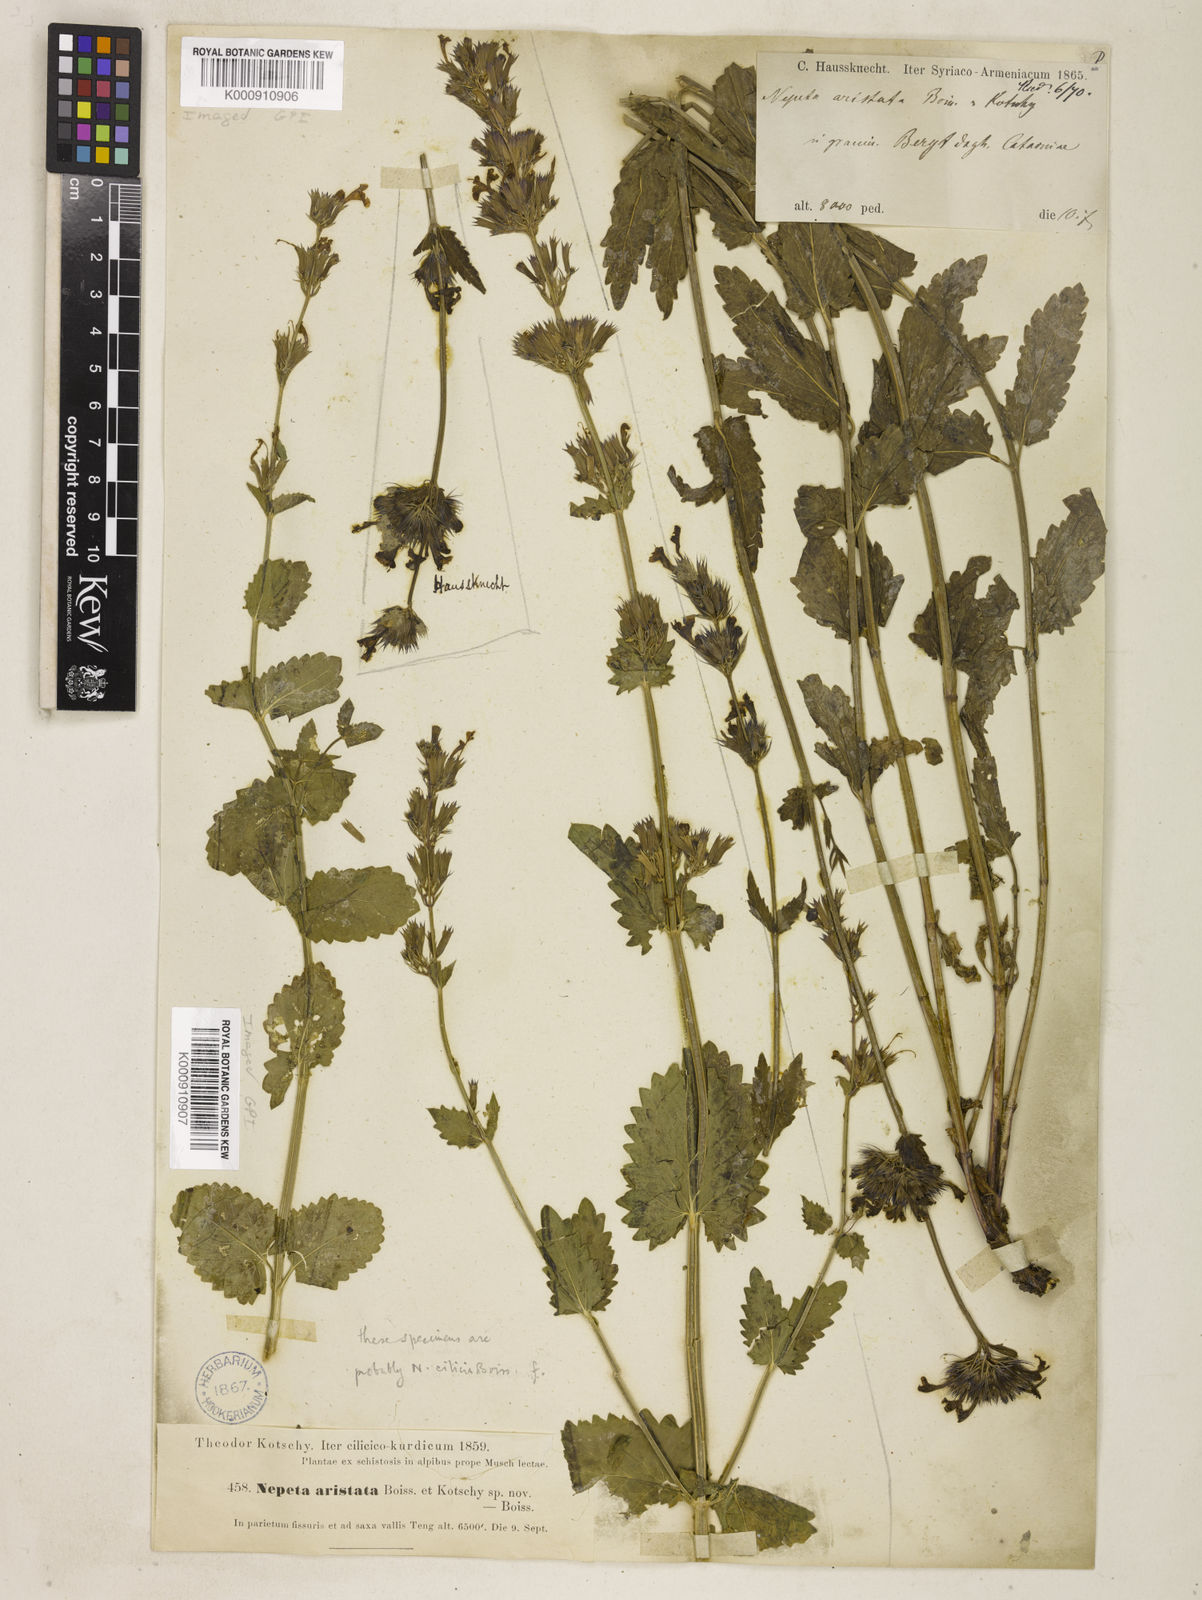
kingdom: Plantae
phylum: Tracheophyta
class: Magnoliopsida
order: Lamiales
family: Lamiaceae
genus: Nepeta
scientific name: Nepeta trichocalyx
